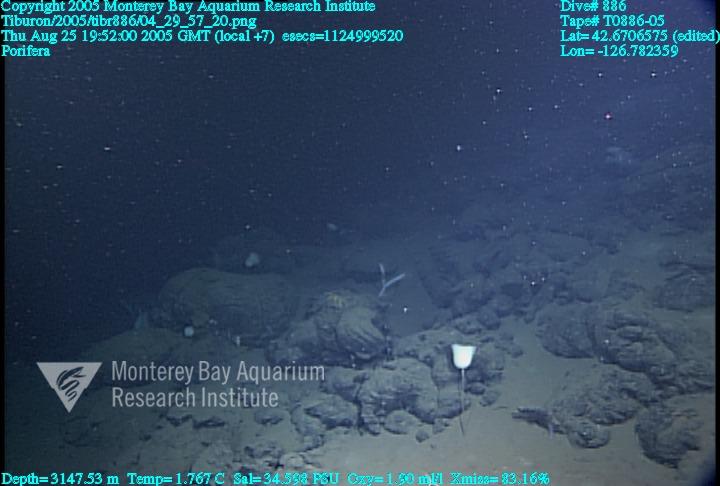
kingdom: Animalia
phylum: Porifera
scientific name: Porifera
